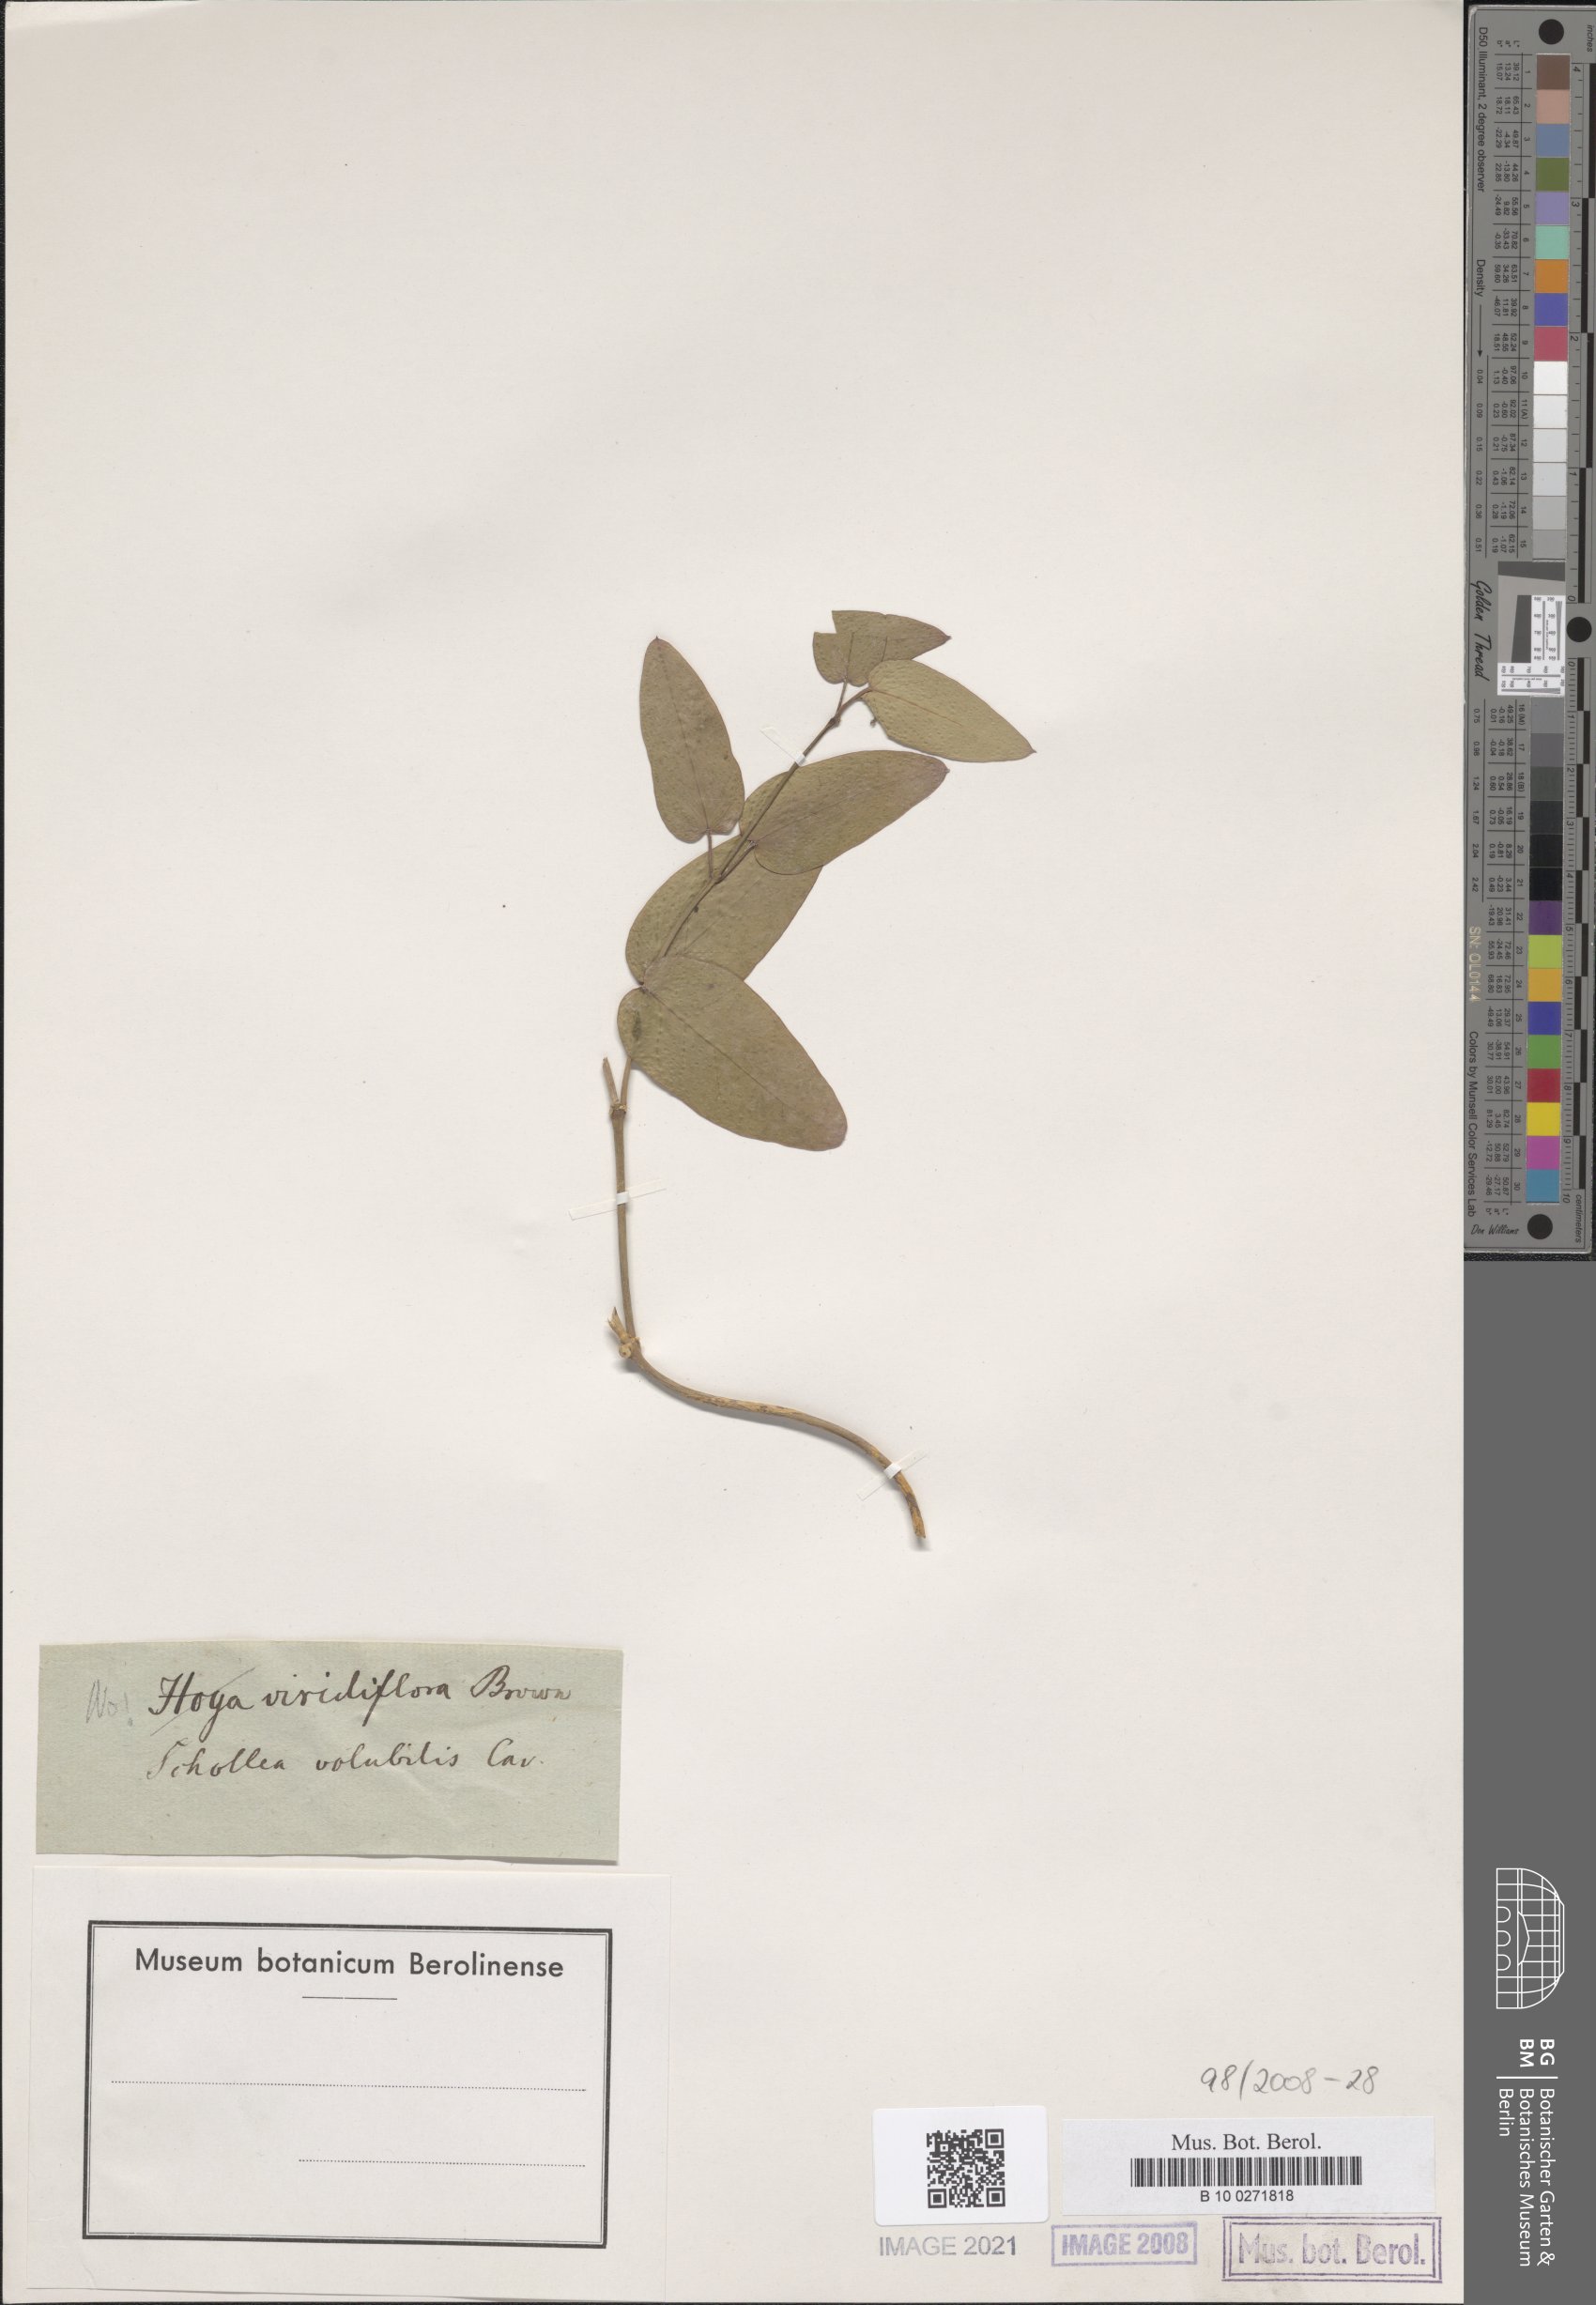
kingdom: Plantae
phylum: Tracheophyta
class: Magnoliopsida
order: Gentianales
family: Apocynaceae
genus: Stephanotis
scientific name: Stephanotis volubilis
